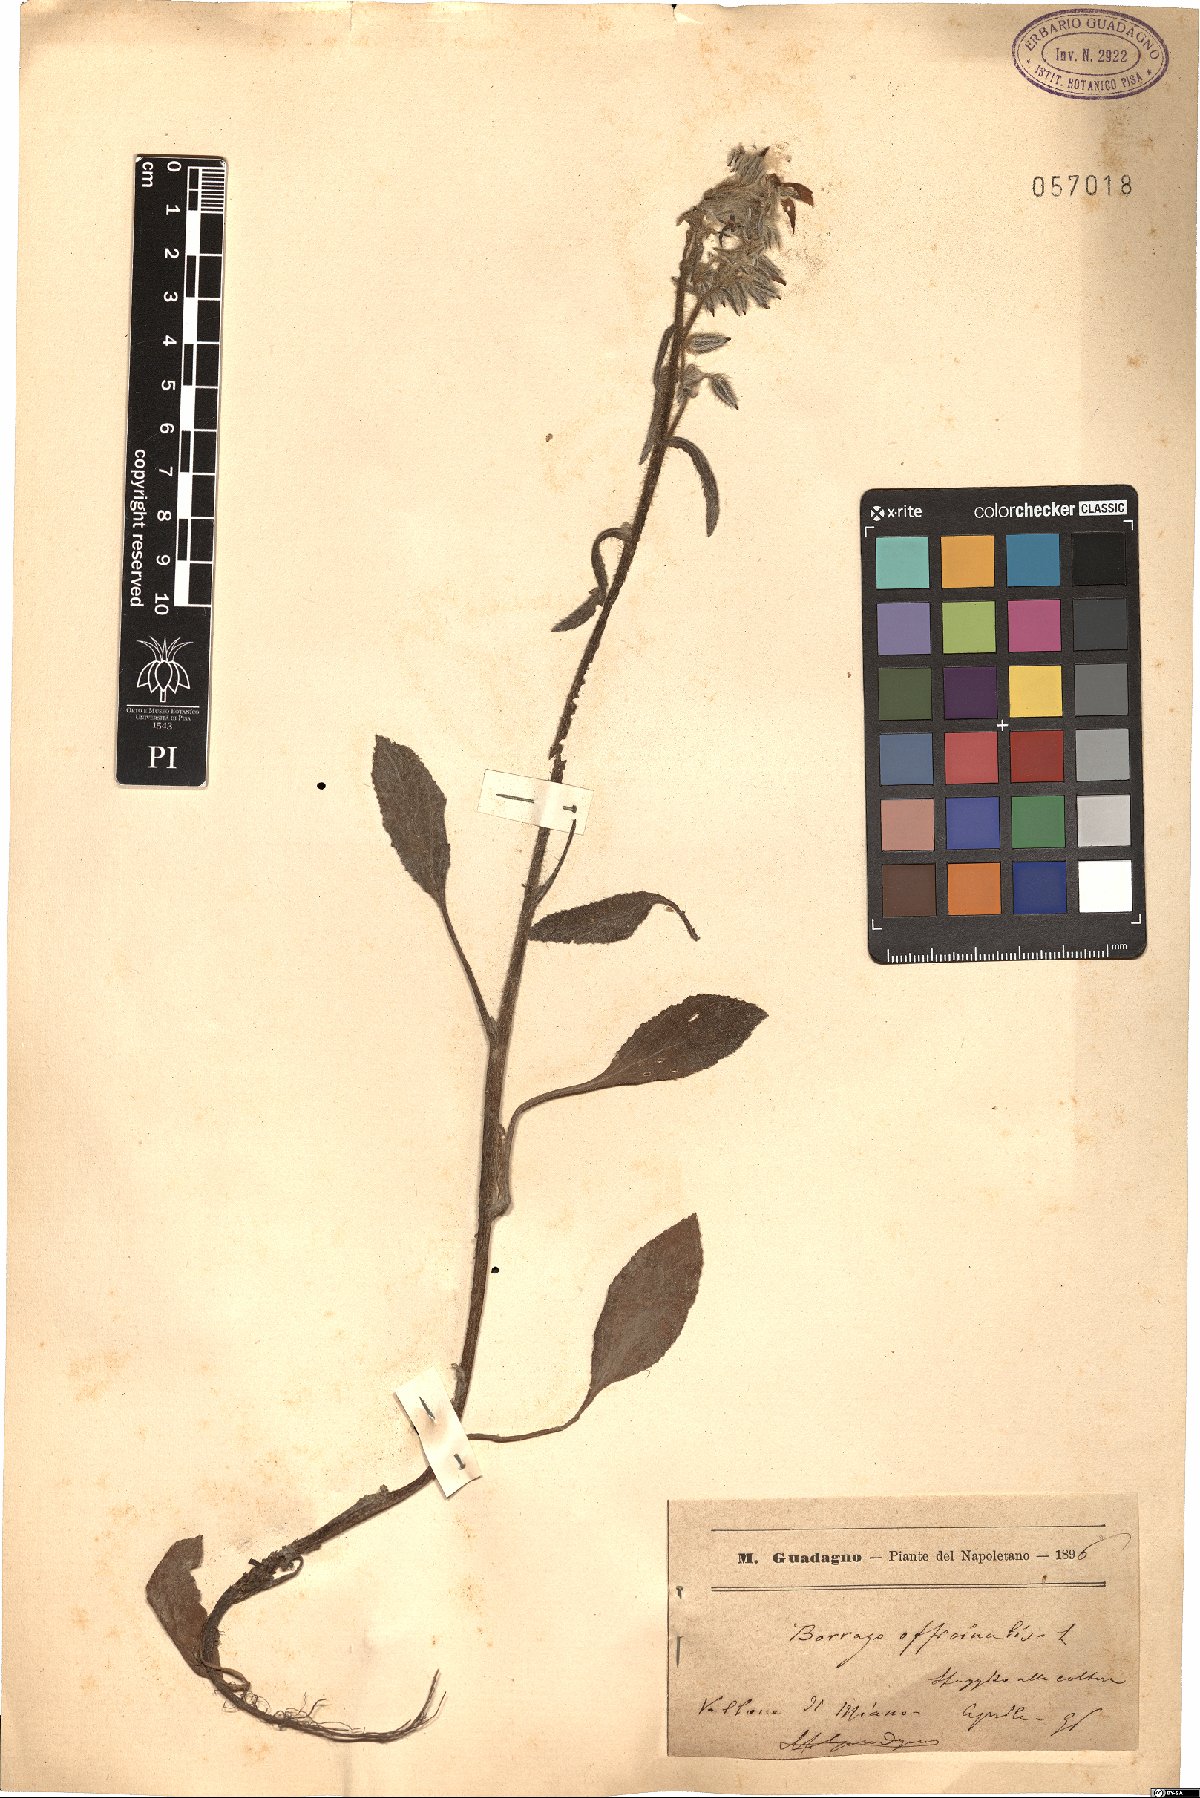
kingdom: Plantae
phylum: Tracheophyta
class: Magnoliopsida
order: Boraginales
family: Boraginaceae
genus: Borago
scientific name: Borago officinalis
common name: Borage
